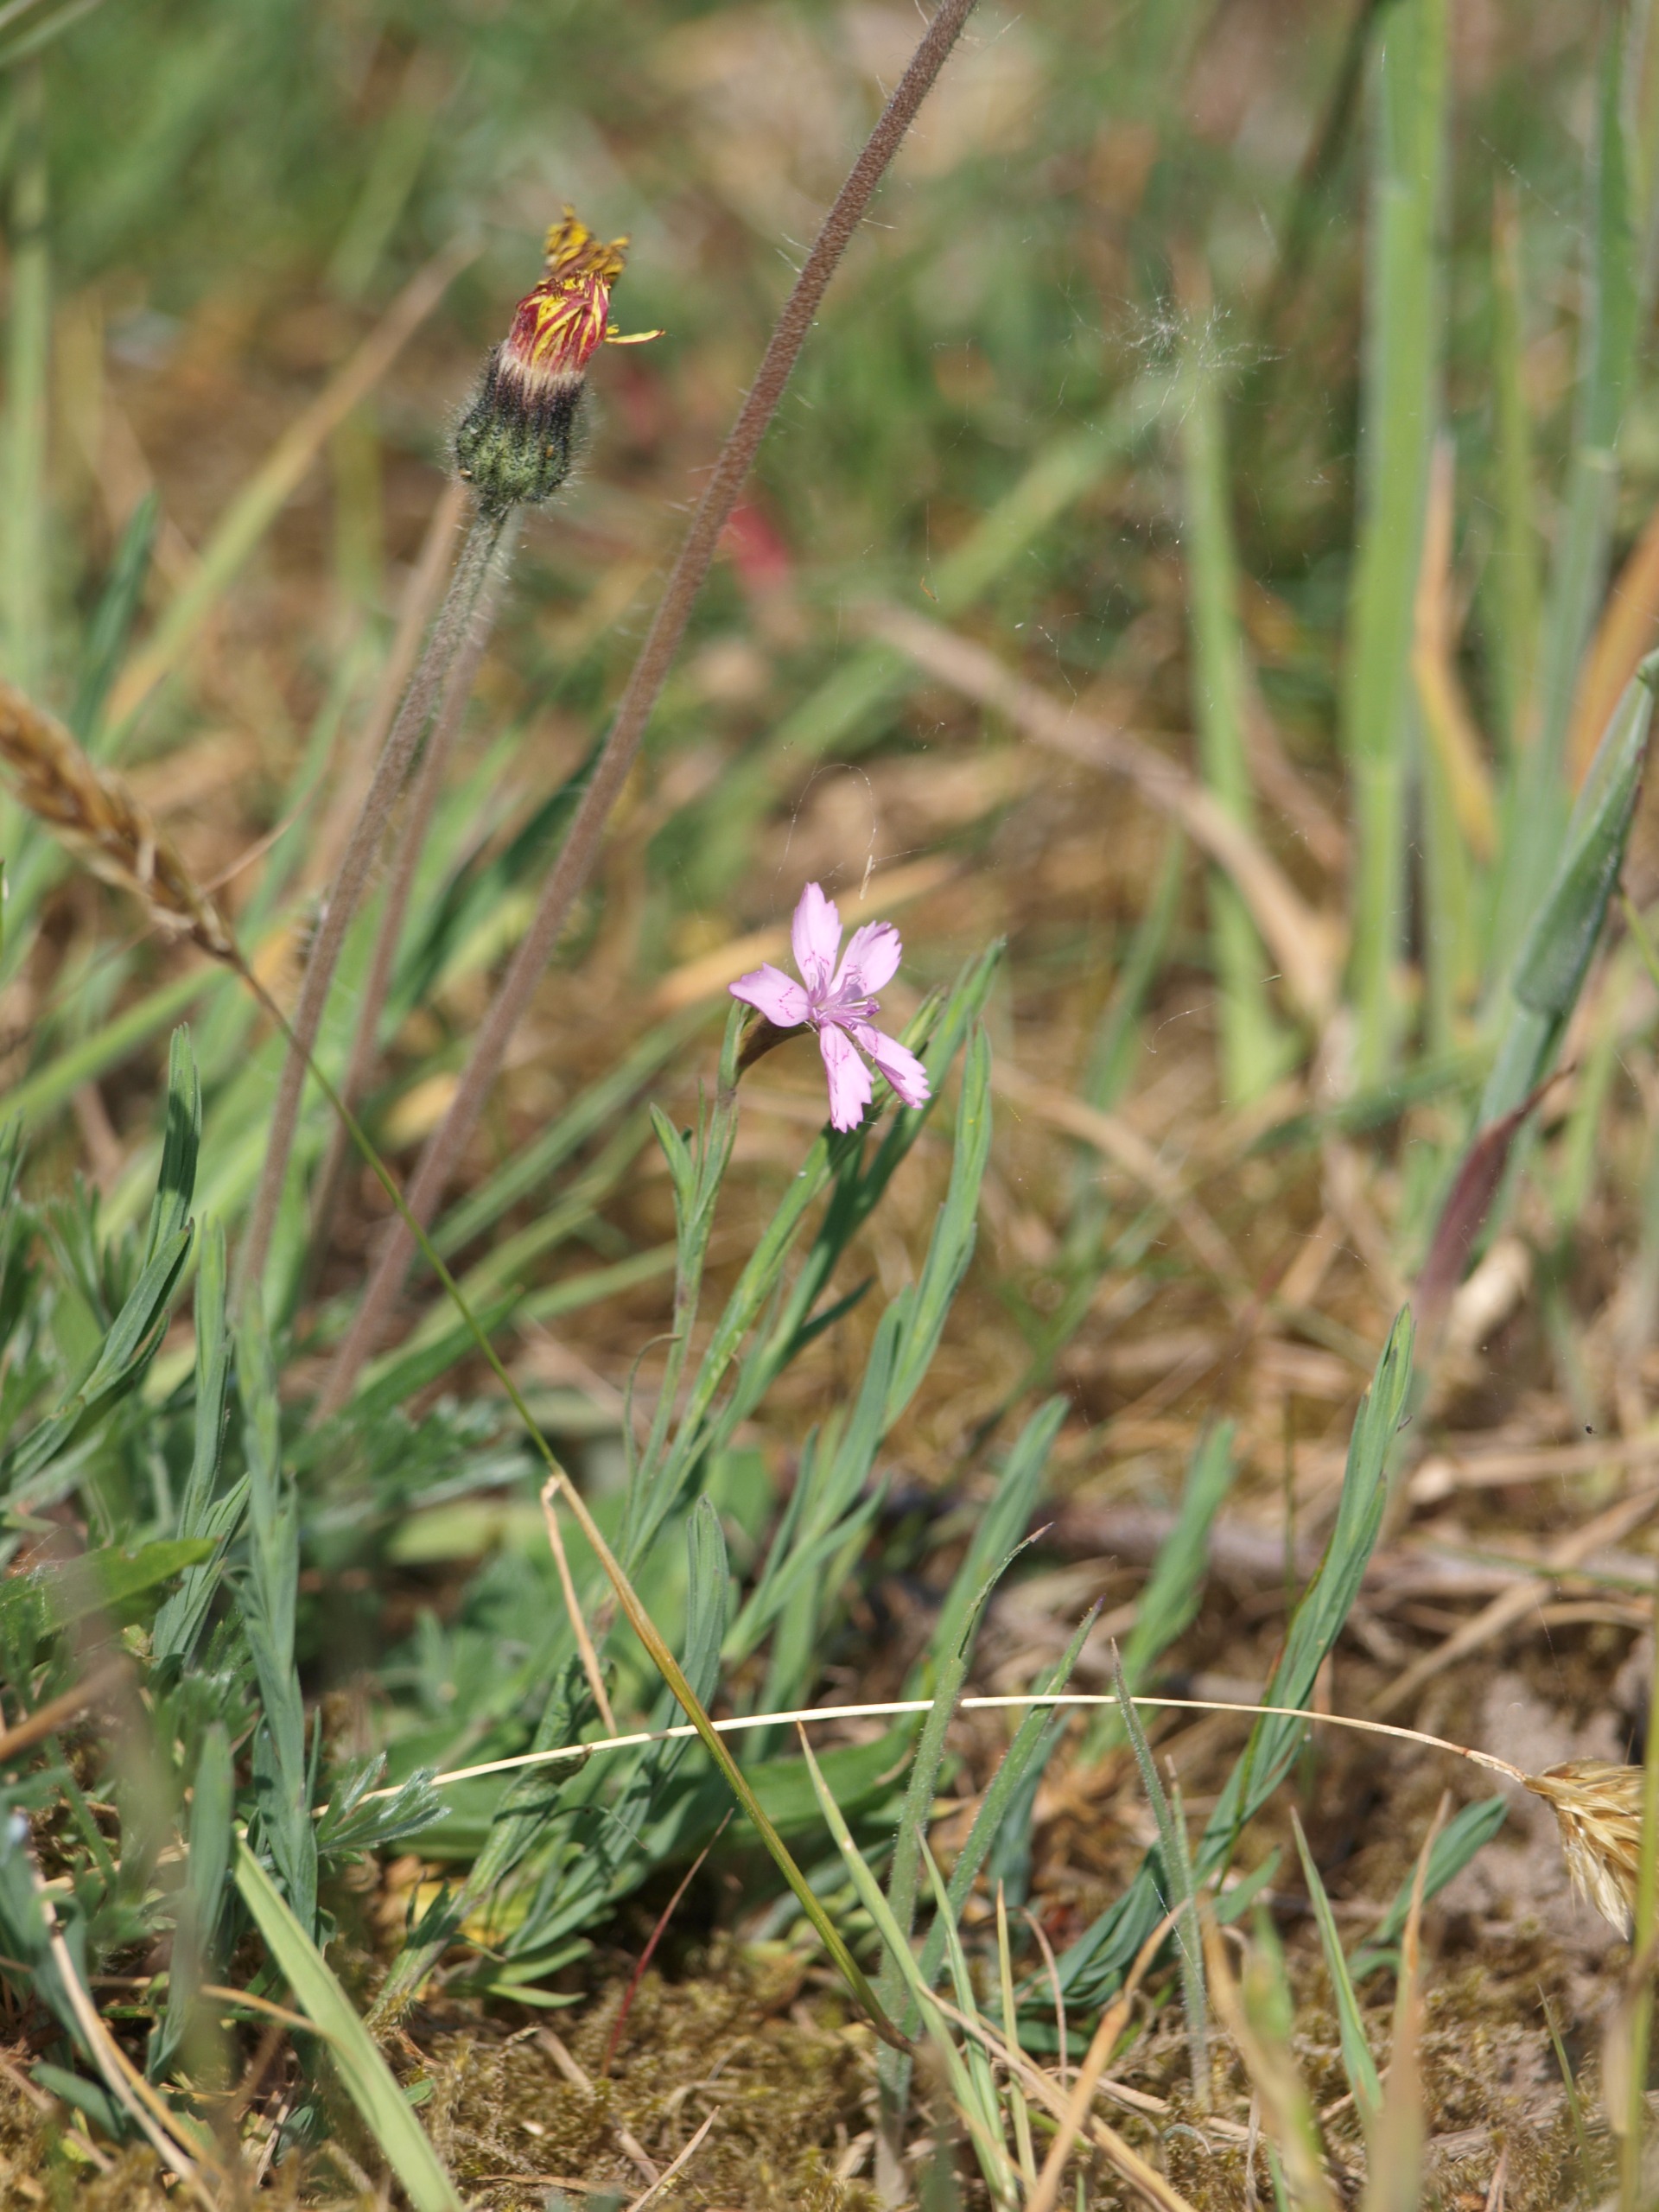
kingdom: Plantae
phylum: Tracheophyta
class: Magnoliopsida
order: Caryophyllales
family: Caryophyllaceae
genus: Dianthus
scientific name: Dianthus deltoides
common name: Bakke-nellike
